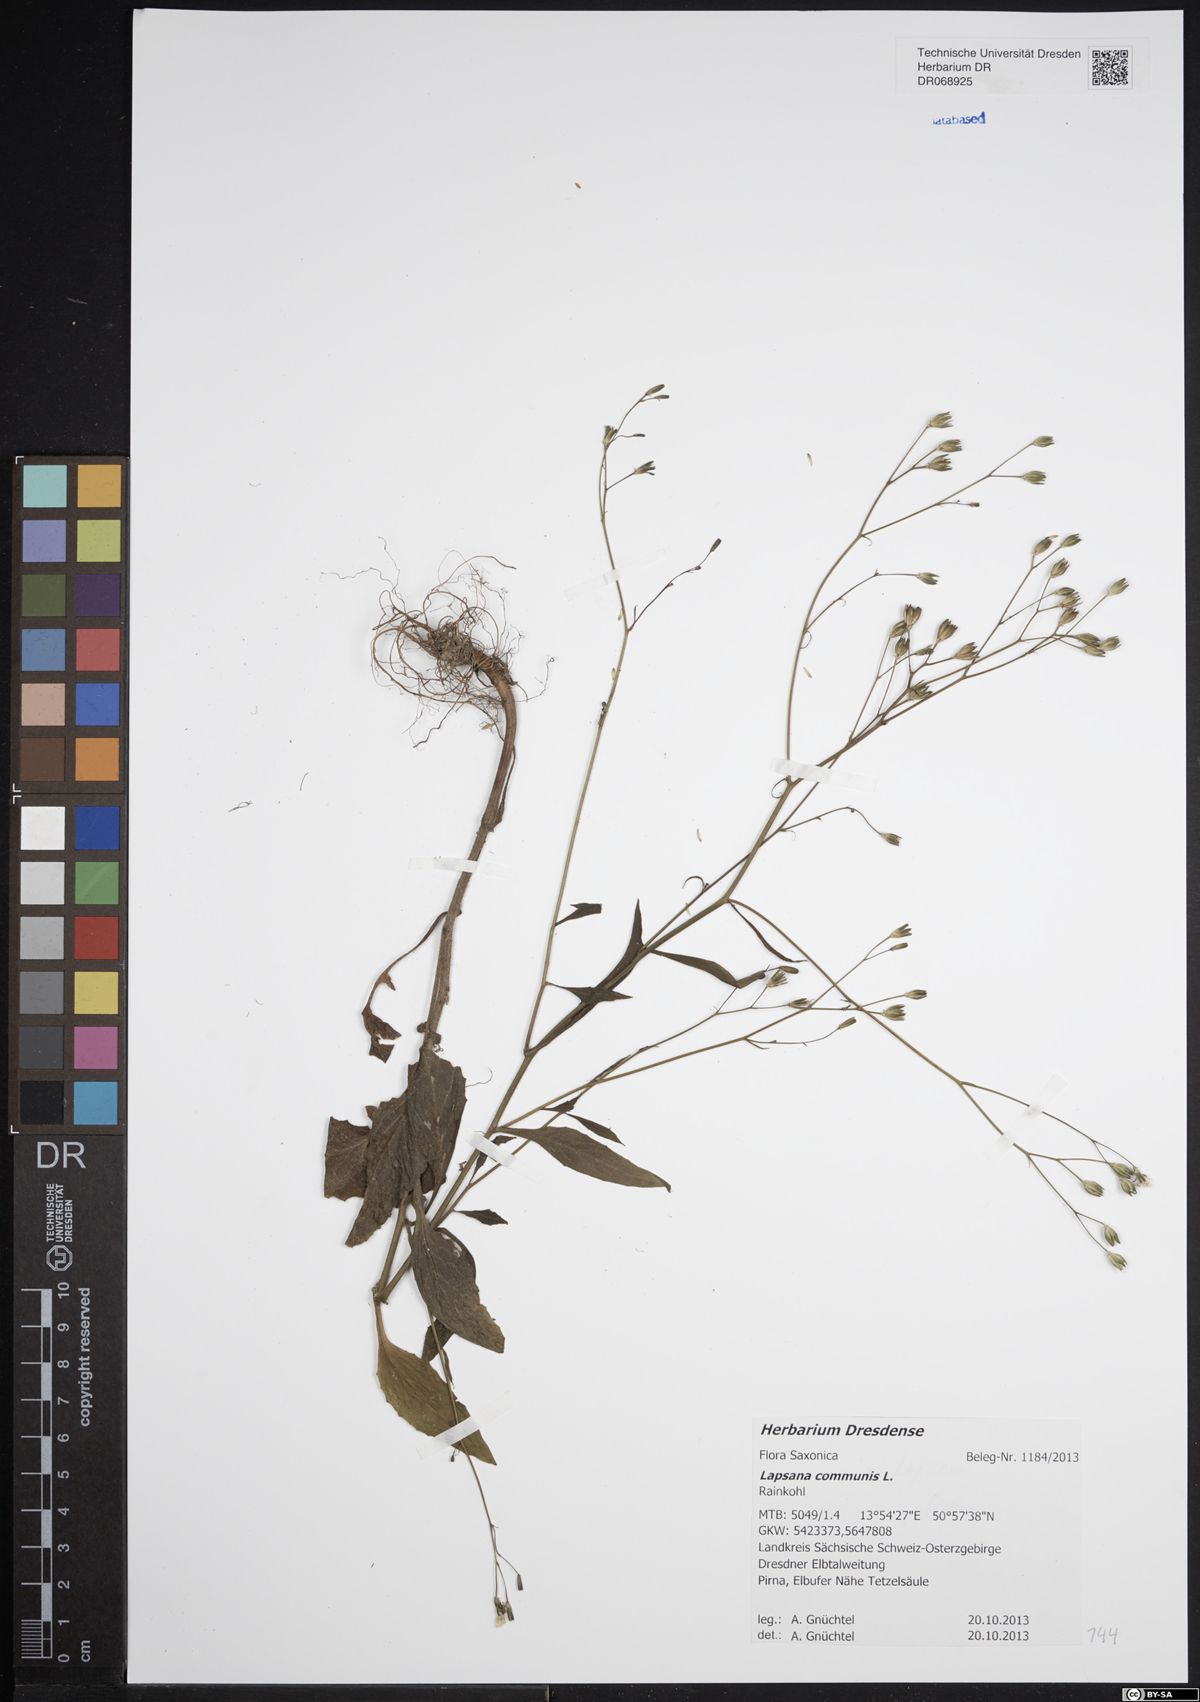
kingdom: Plantae
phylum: Tracheophyta
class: Magnoliopsida
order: Asterales
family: Asteraceae
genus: Lapsana
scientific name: Lapsana communis
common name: Nipplewort
